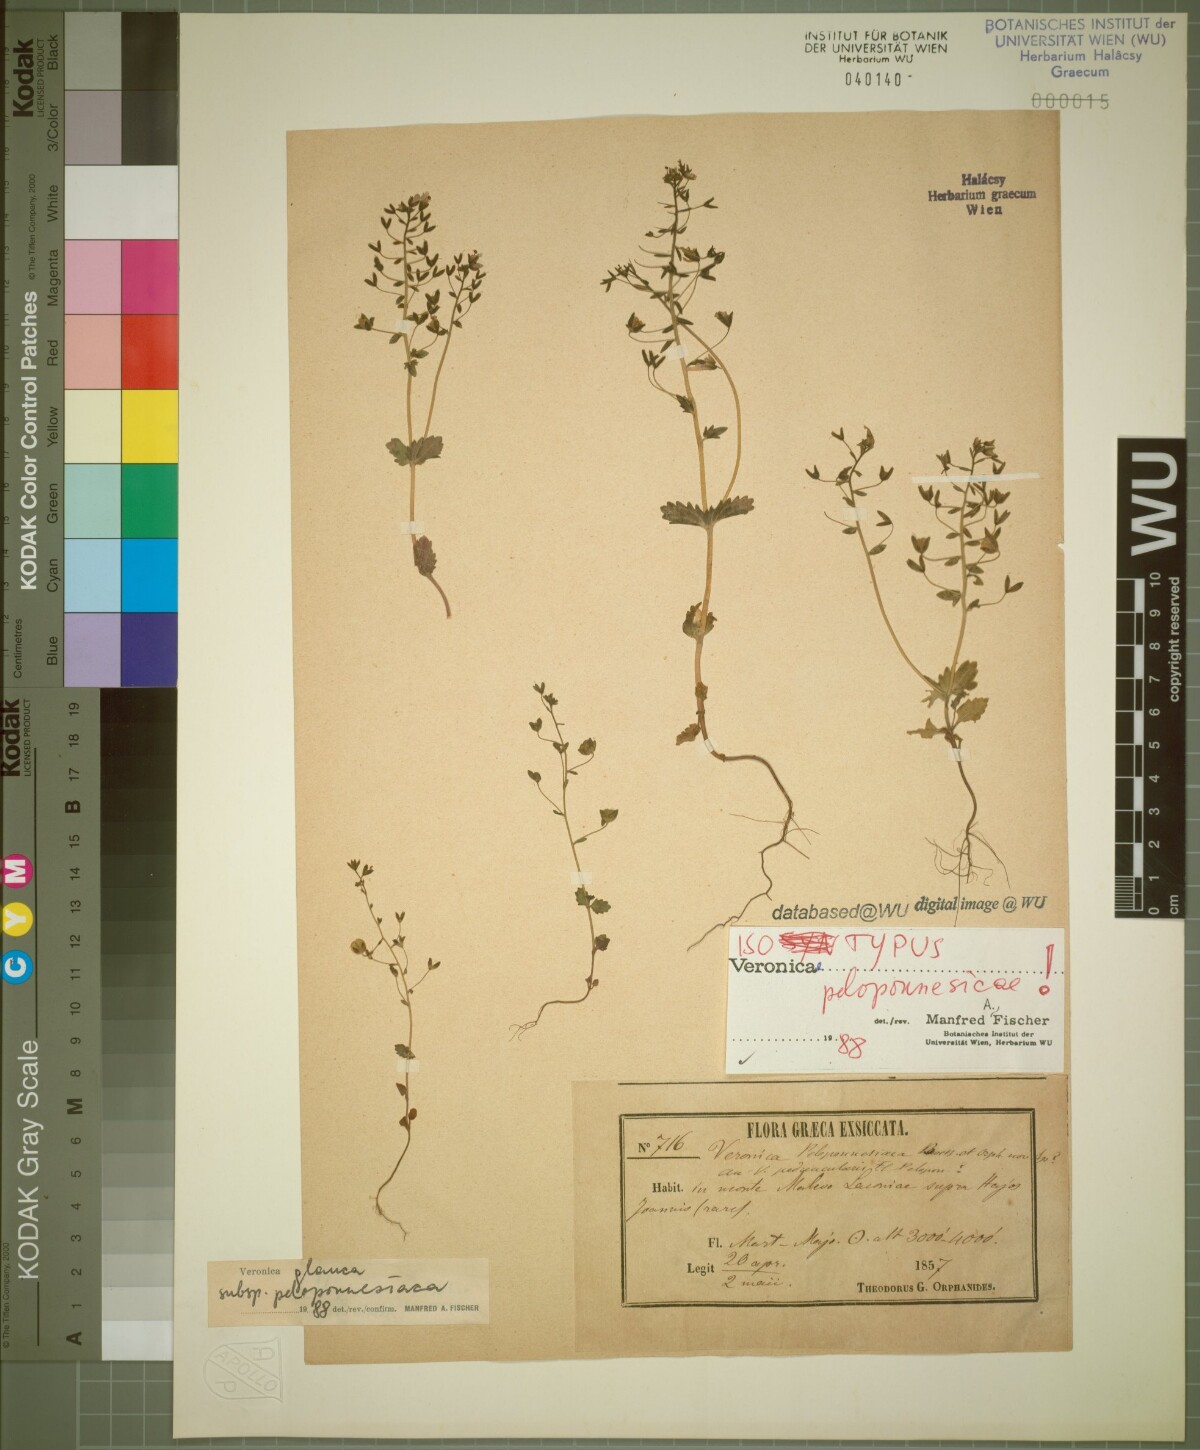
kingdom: Plantae
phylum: Tracheophyta
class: Magnoliopsida
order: Lamiales
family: Plantaginaceae
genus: Veronica
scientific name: Veronica glauca
